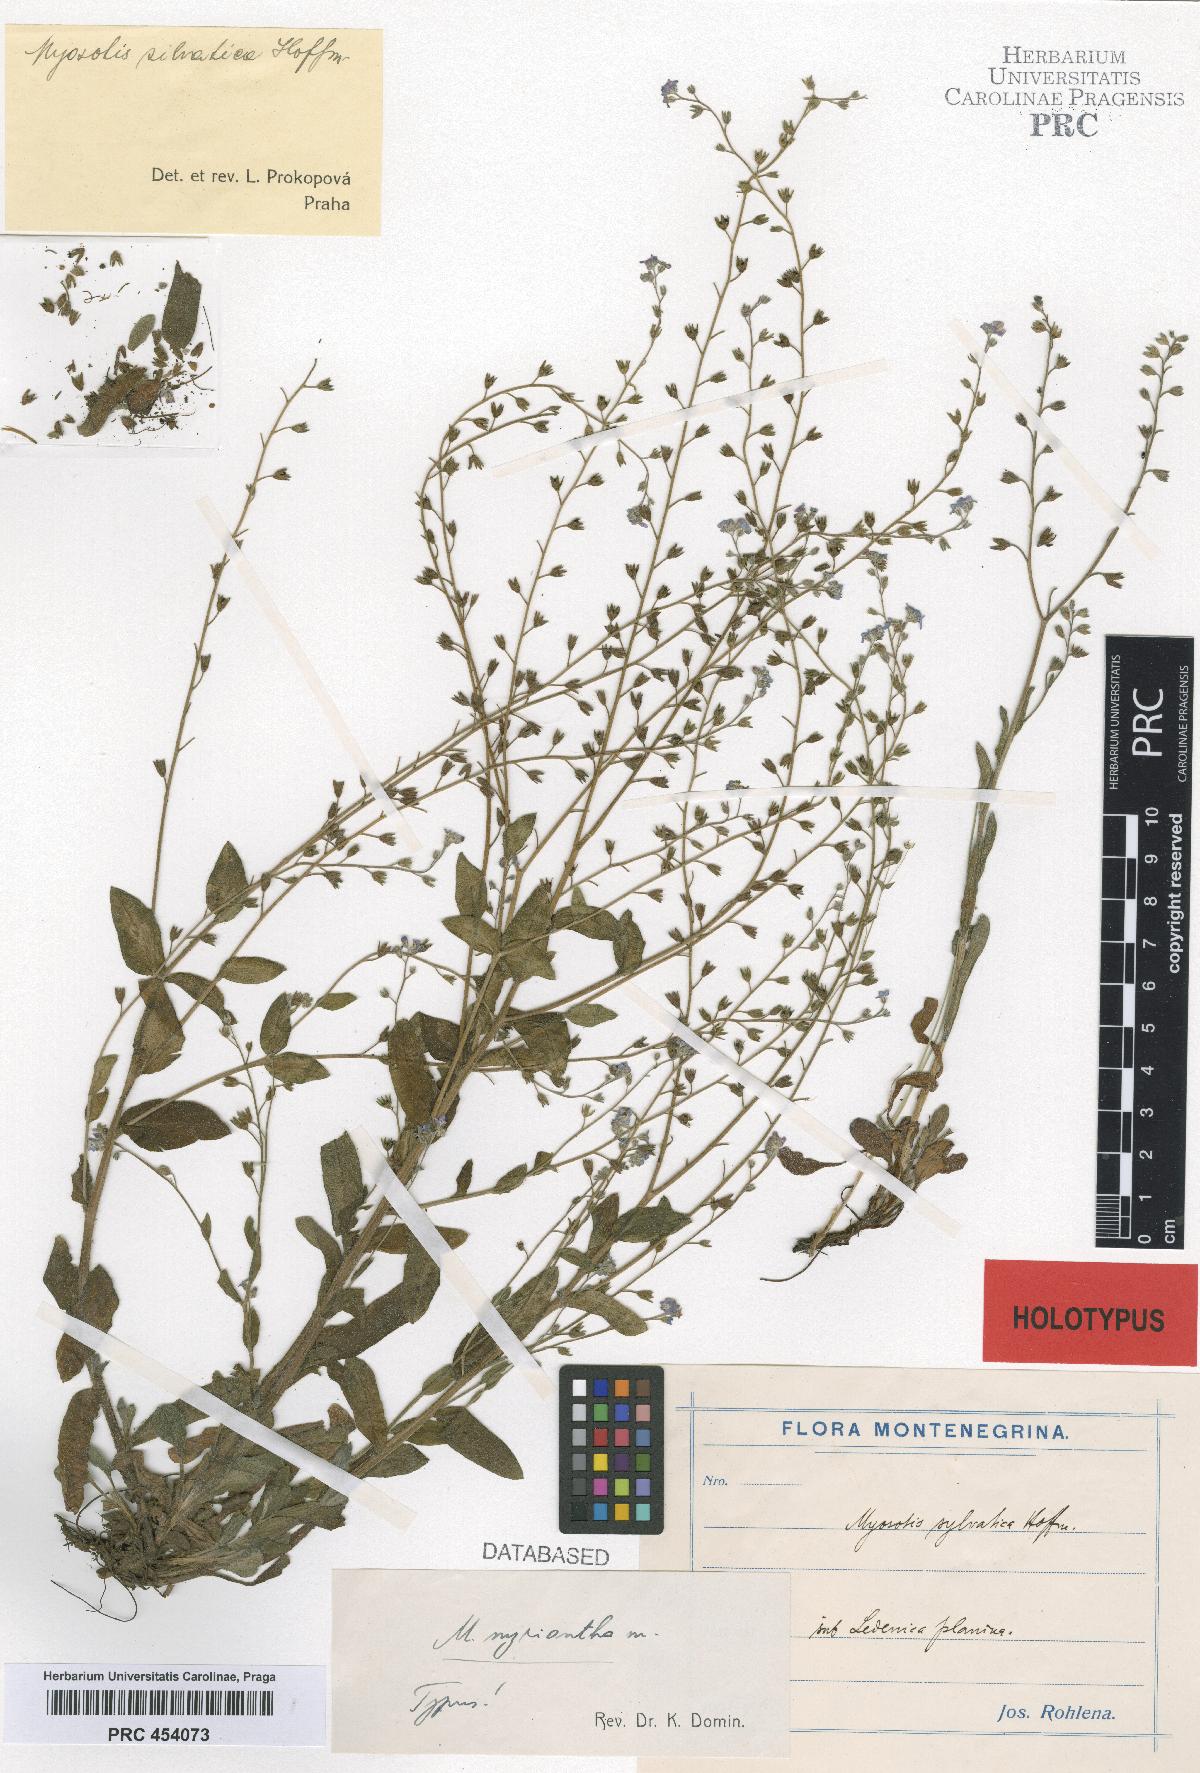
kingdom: Plantae
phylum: Tracheophyta
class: Magnoliopsida
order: Boraginales
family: Boraginaceae
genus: Myosotis
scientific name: Myosotis sylvatica
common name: Wood forget-me-not
